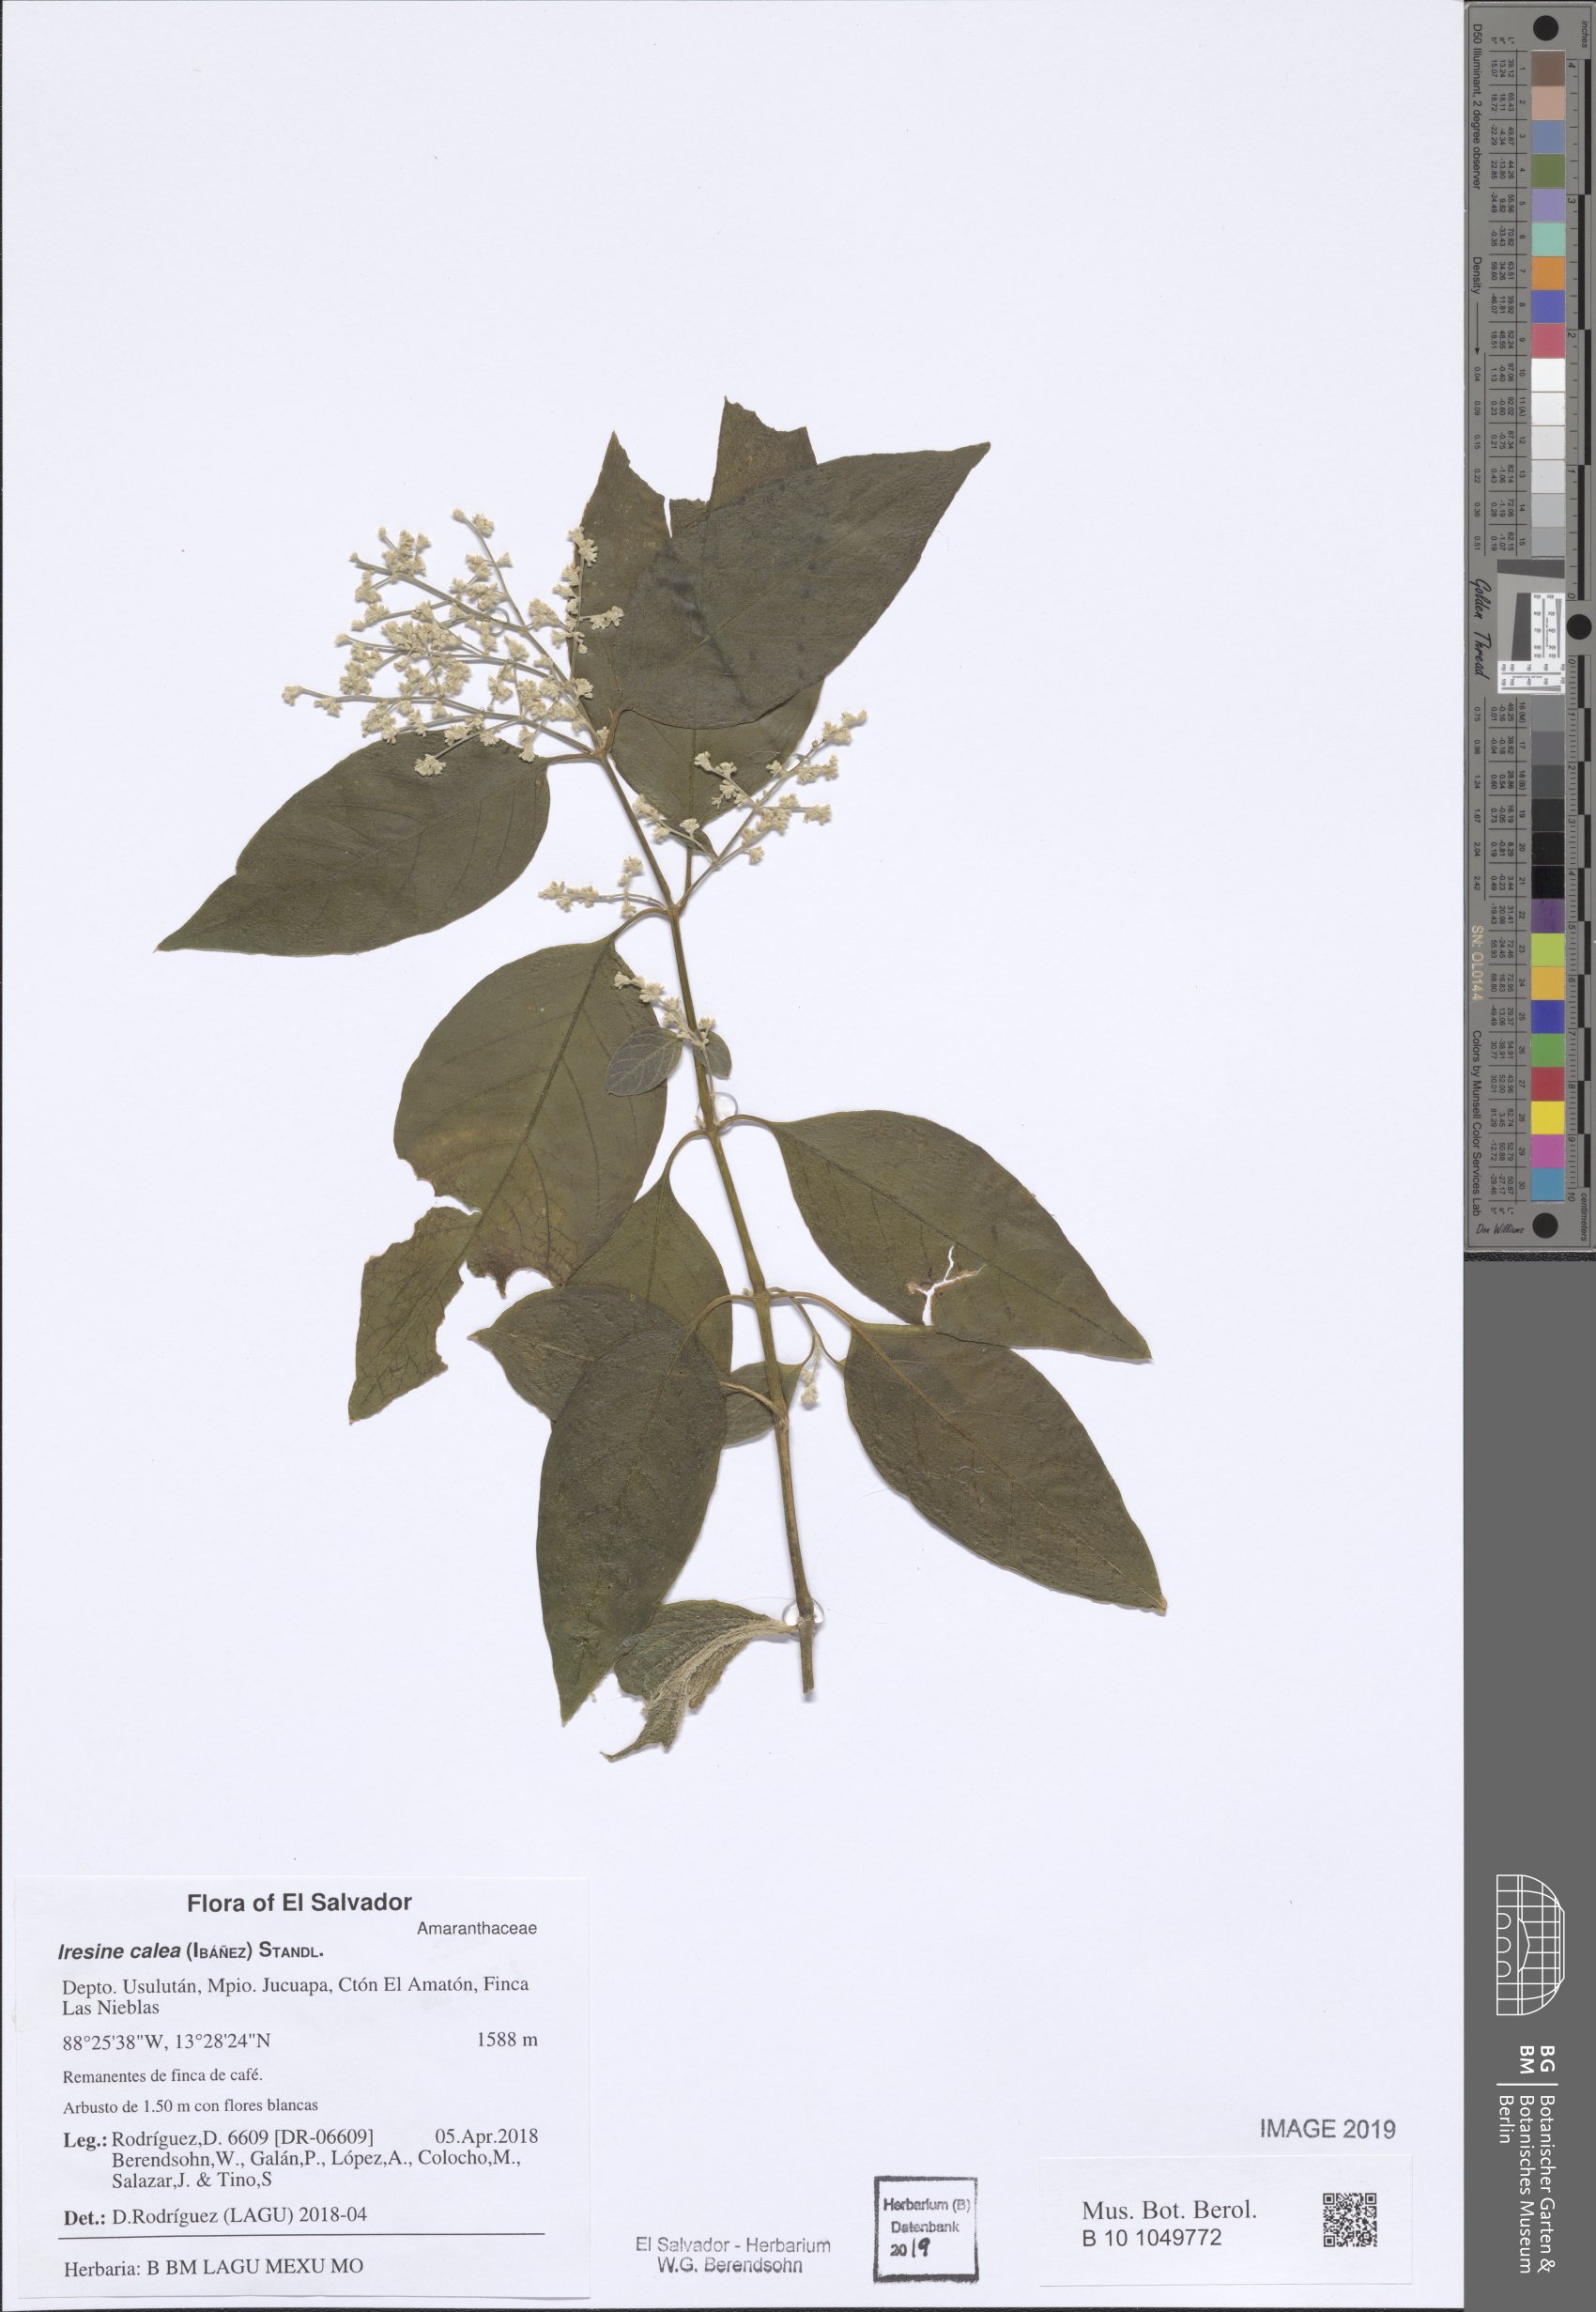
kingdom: Plantae
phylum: Tracheophyta
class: Magnoliopsida
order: Caryophyllales
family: Amaranthaceae
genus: Iresine
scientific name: Iresine latifolia
